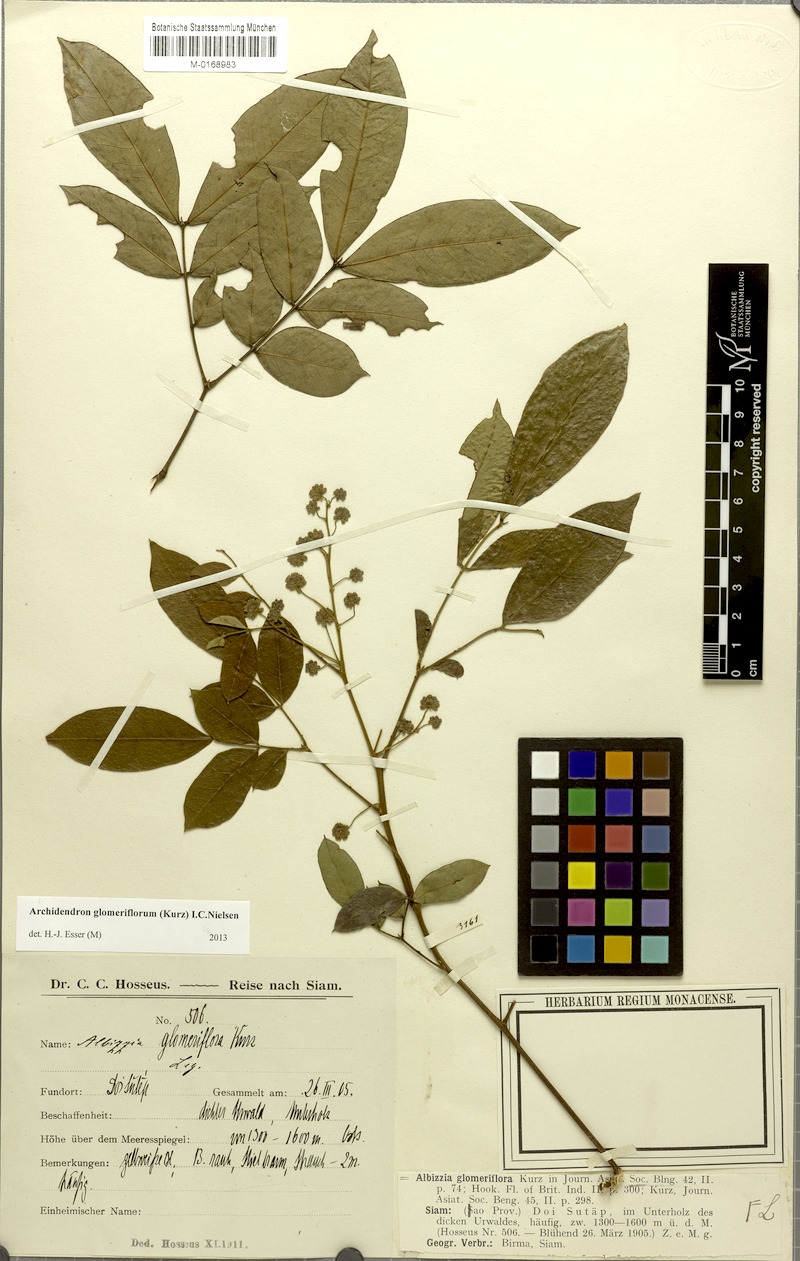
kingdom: Plantae
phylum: Tracheophyta
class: Magnoliopsida
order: Fabales
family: Fabaceae
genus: Archidendron
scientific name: Archidendron glomeriflorum
